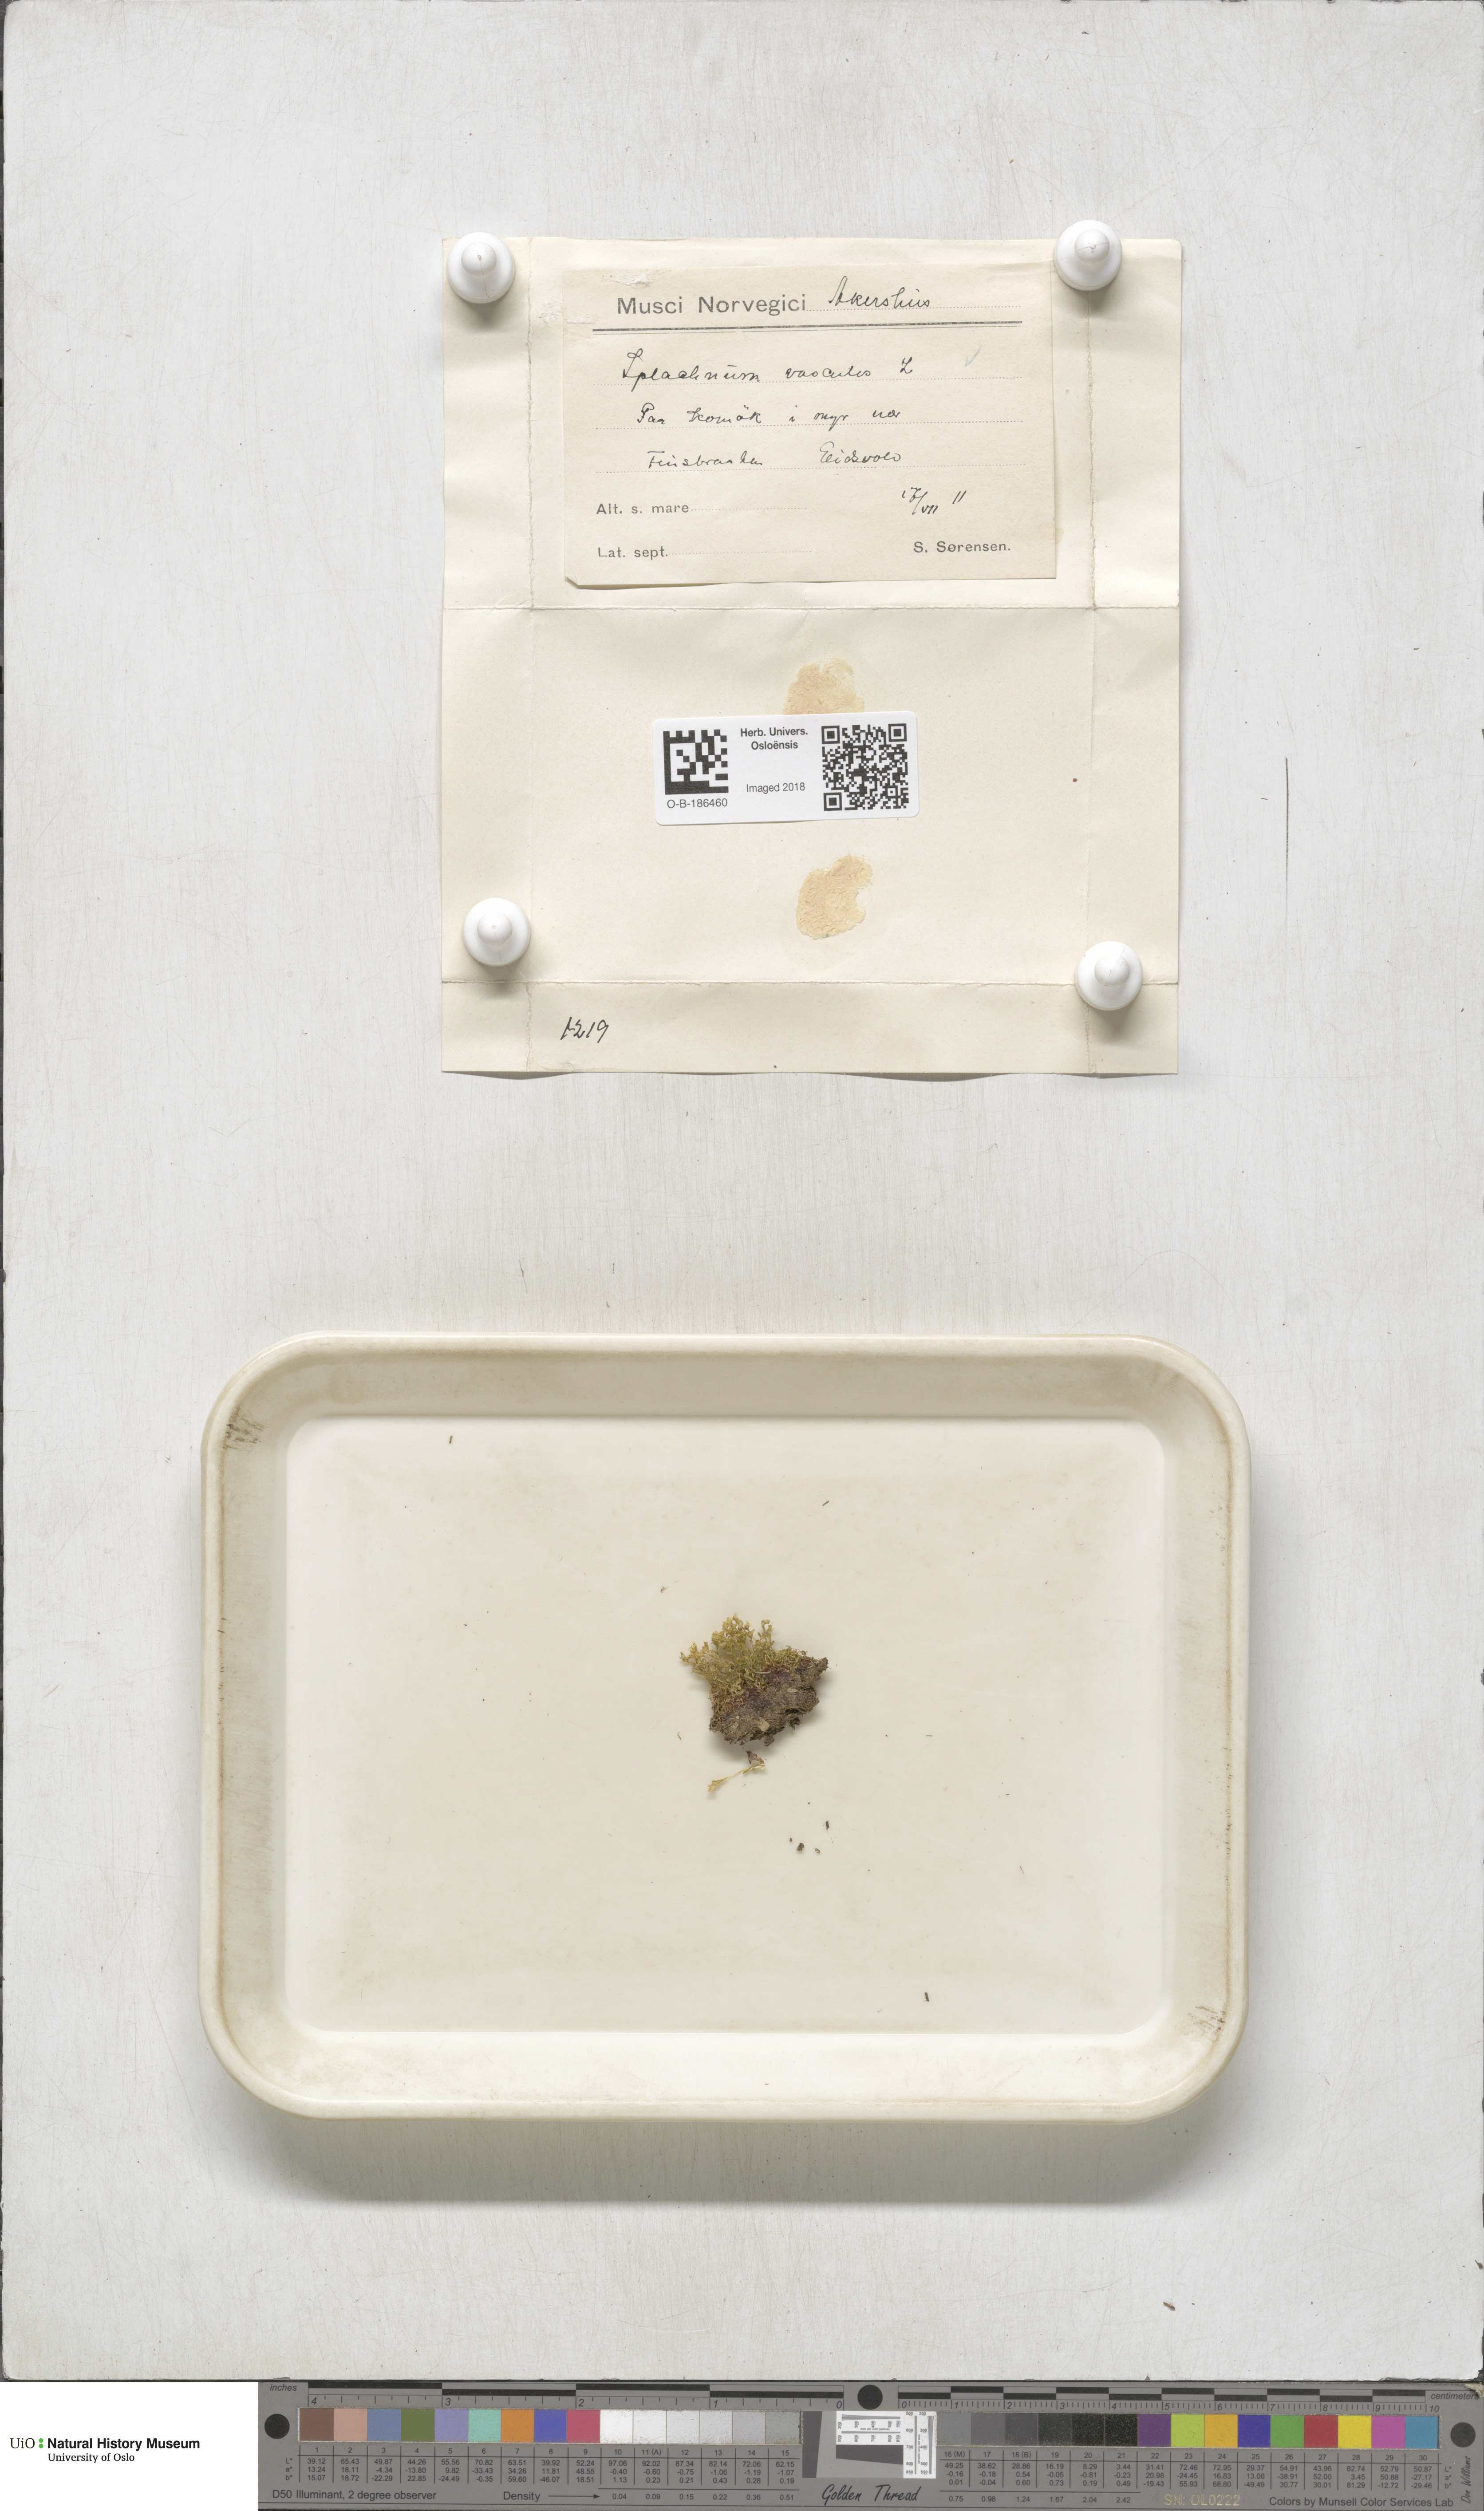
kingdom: Plantae
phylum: Bryophyta
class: Bryopsida
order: Splachnales
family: Splachnaceae
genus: Splachnum
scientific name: Splachnum vasculosum
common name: Rugged dung moss
